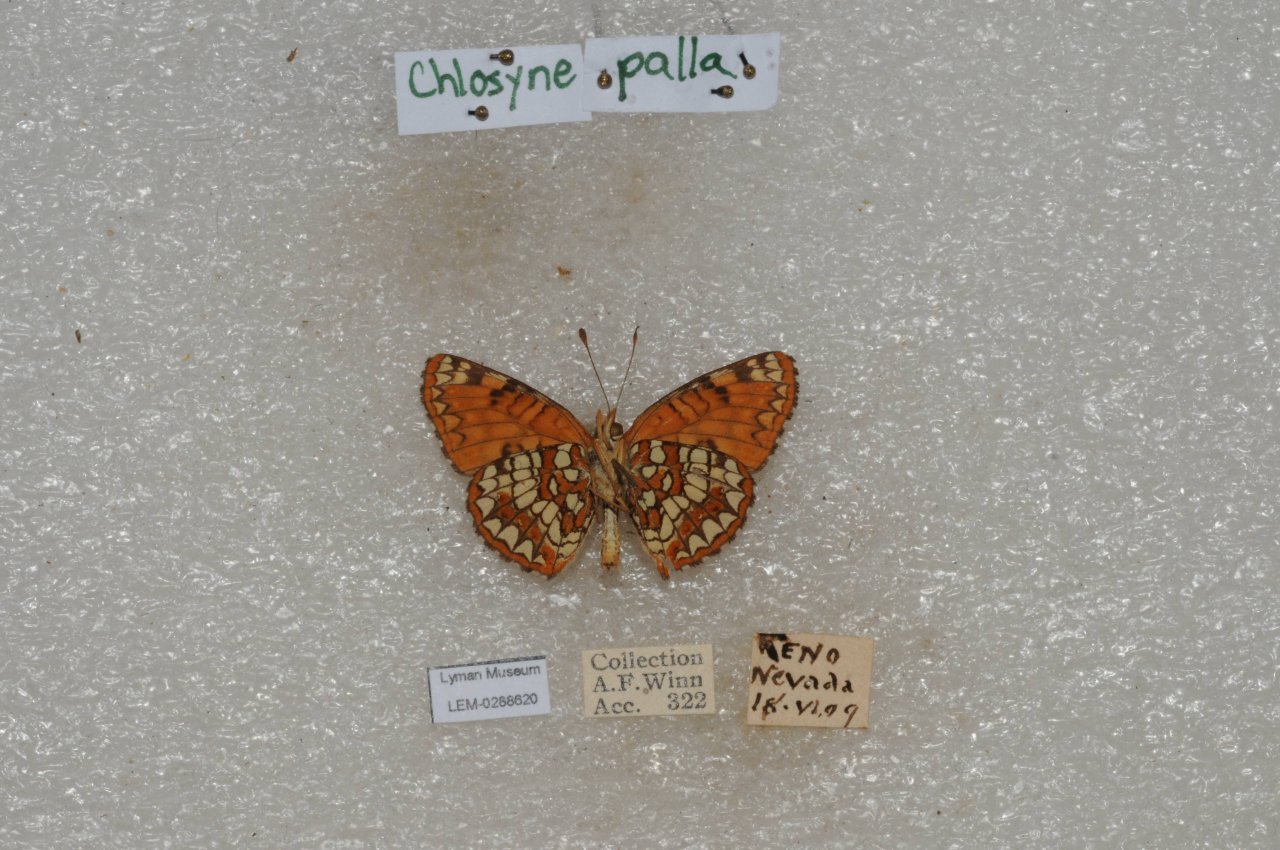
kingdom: Animalia
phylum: Arthropoda
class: Insecta
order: Lepidoptera
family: Nymphalidae
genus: Chlosyne
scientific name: Chlosyne palla
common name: Northern Checkerspot
